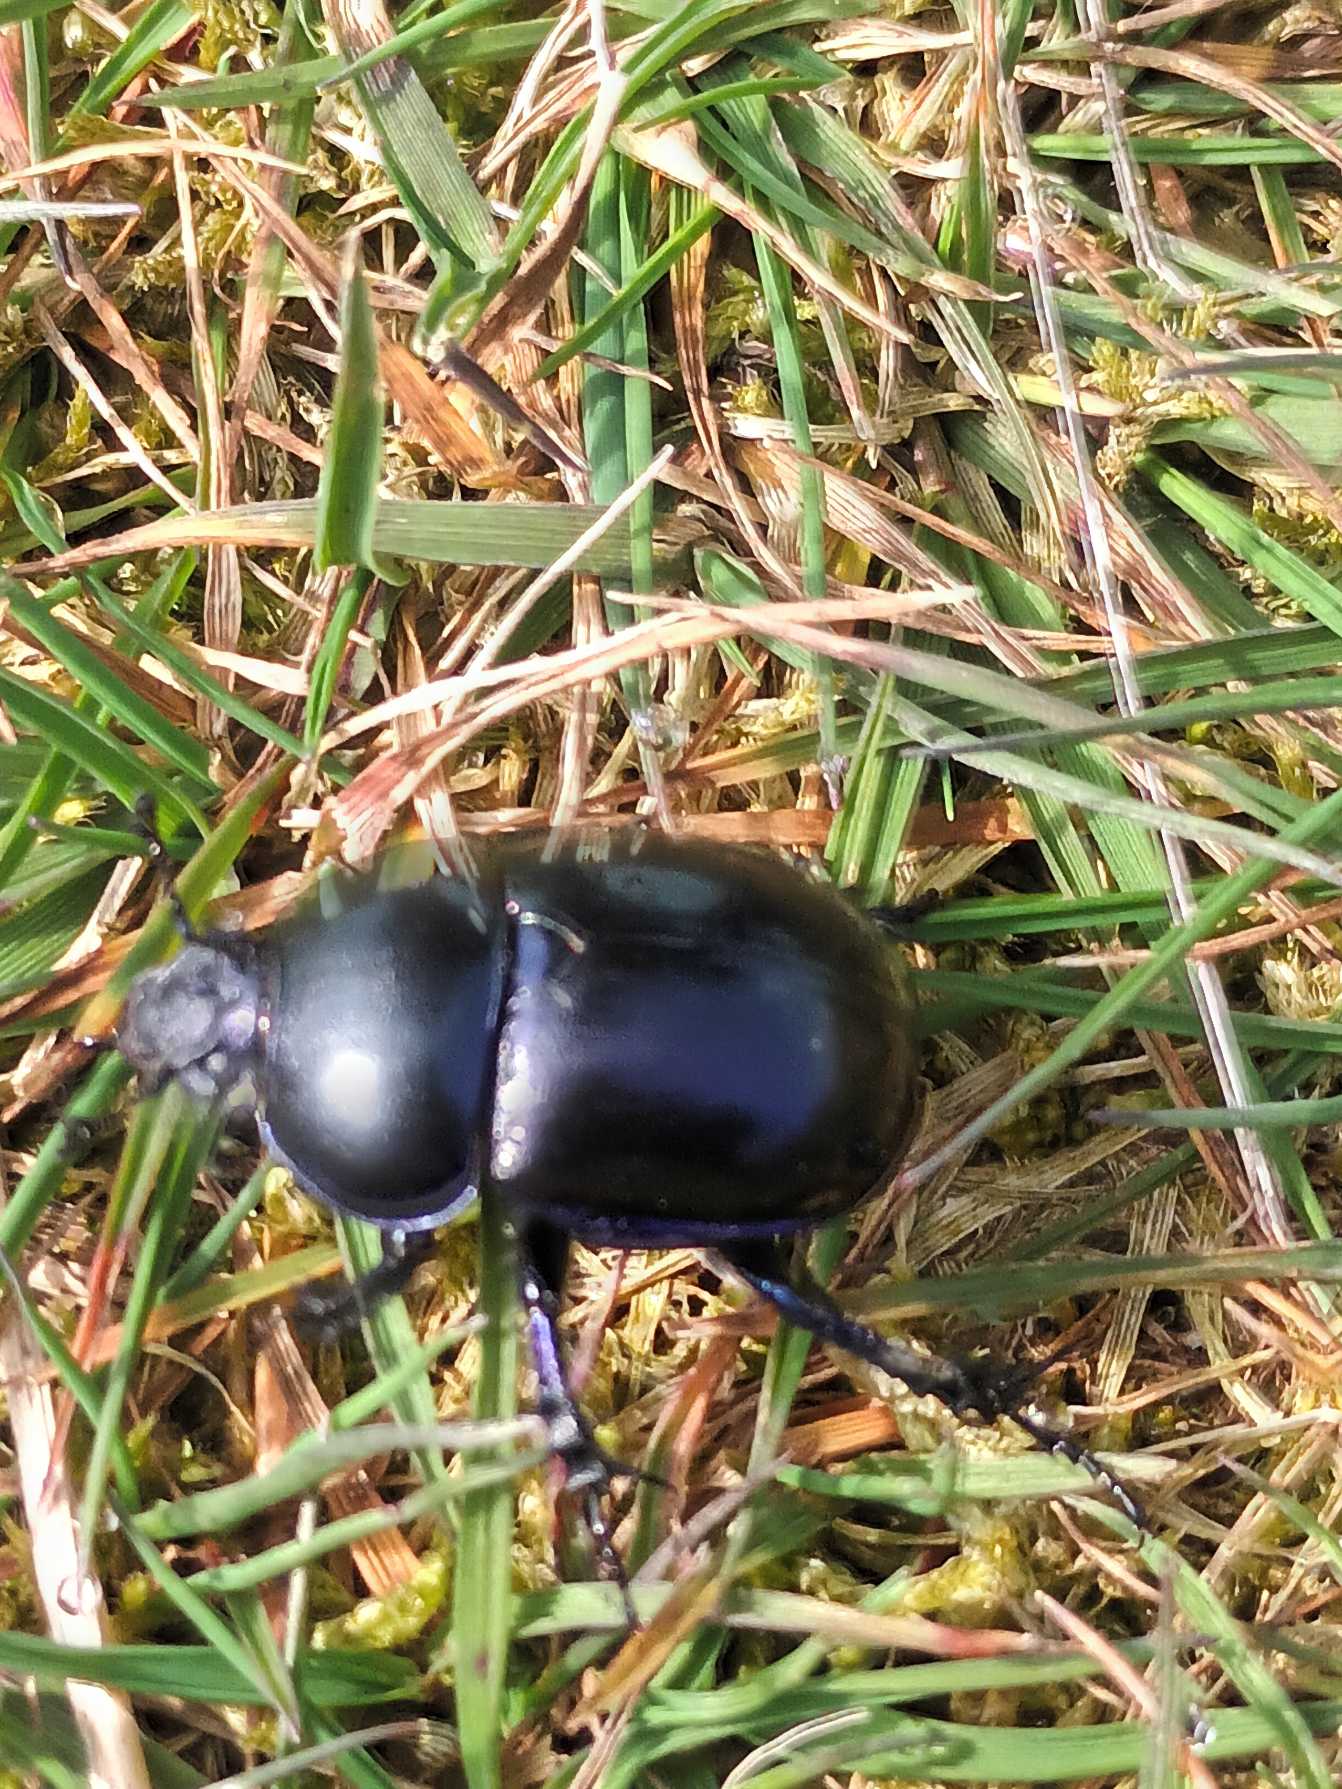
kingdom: Animalia
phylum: Arthropoda
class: Insecta
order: Coleoptera
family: Geotrupidae
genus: Trypocopris
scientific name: Trypocopris vernalis
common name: Glat skarnbasse
